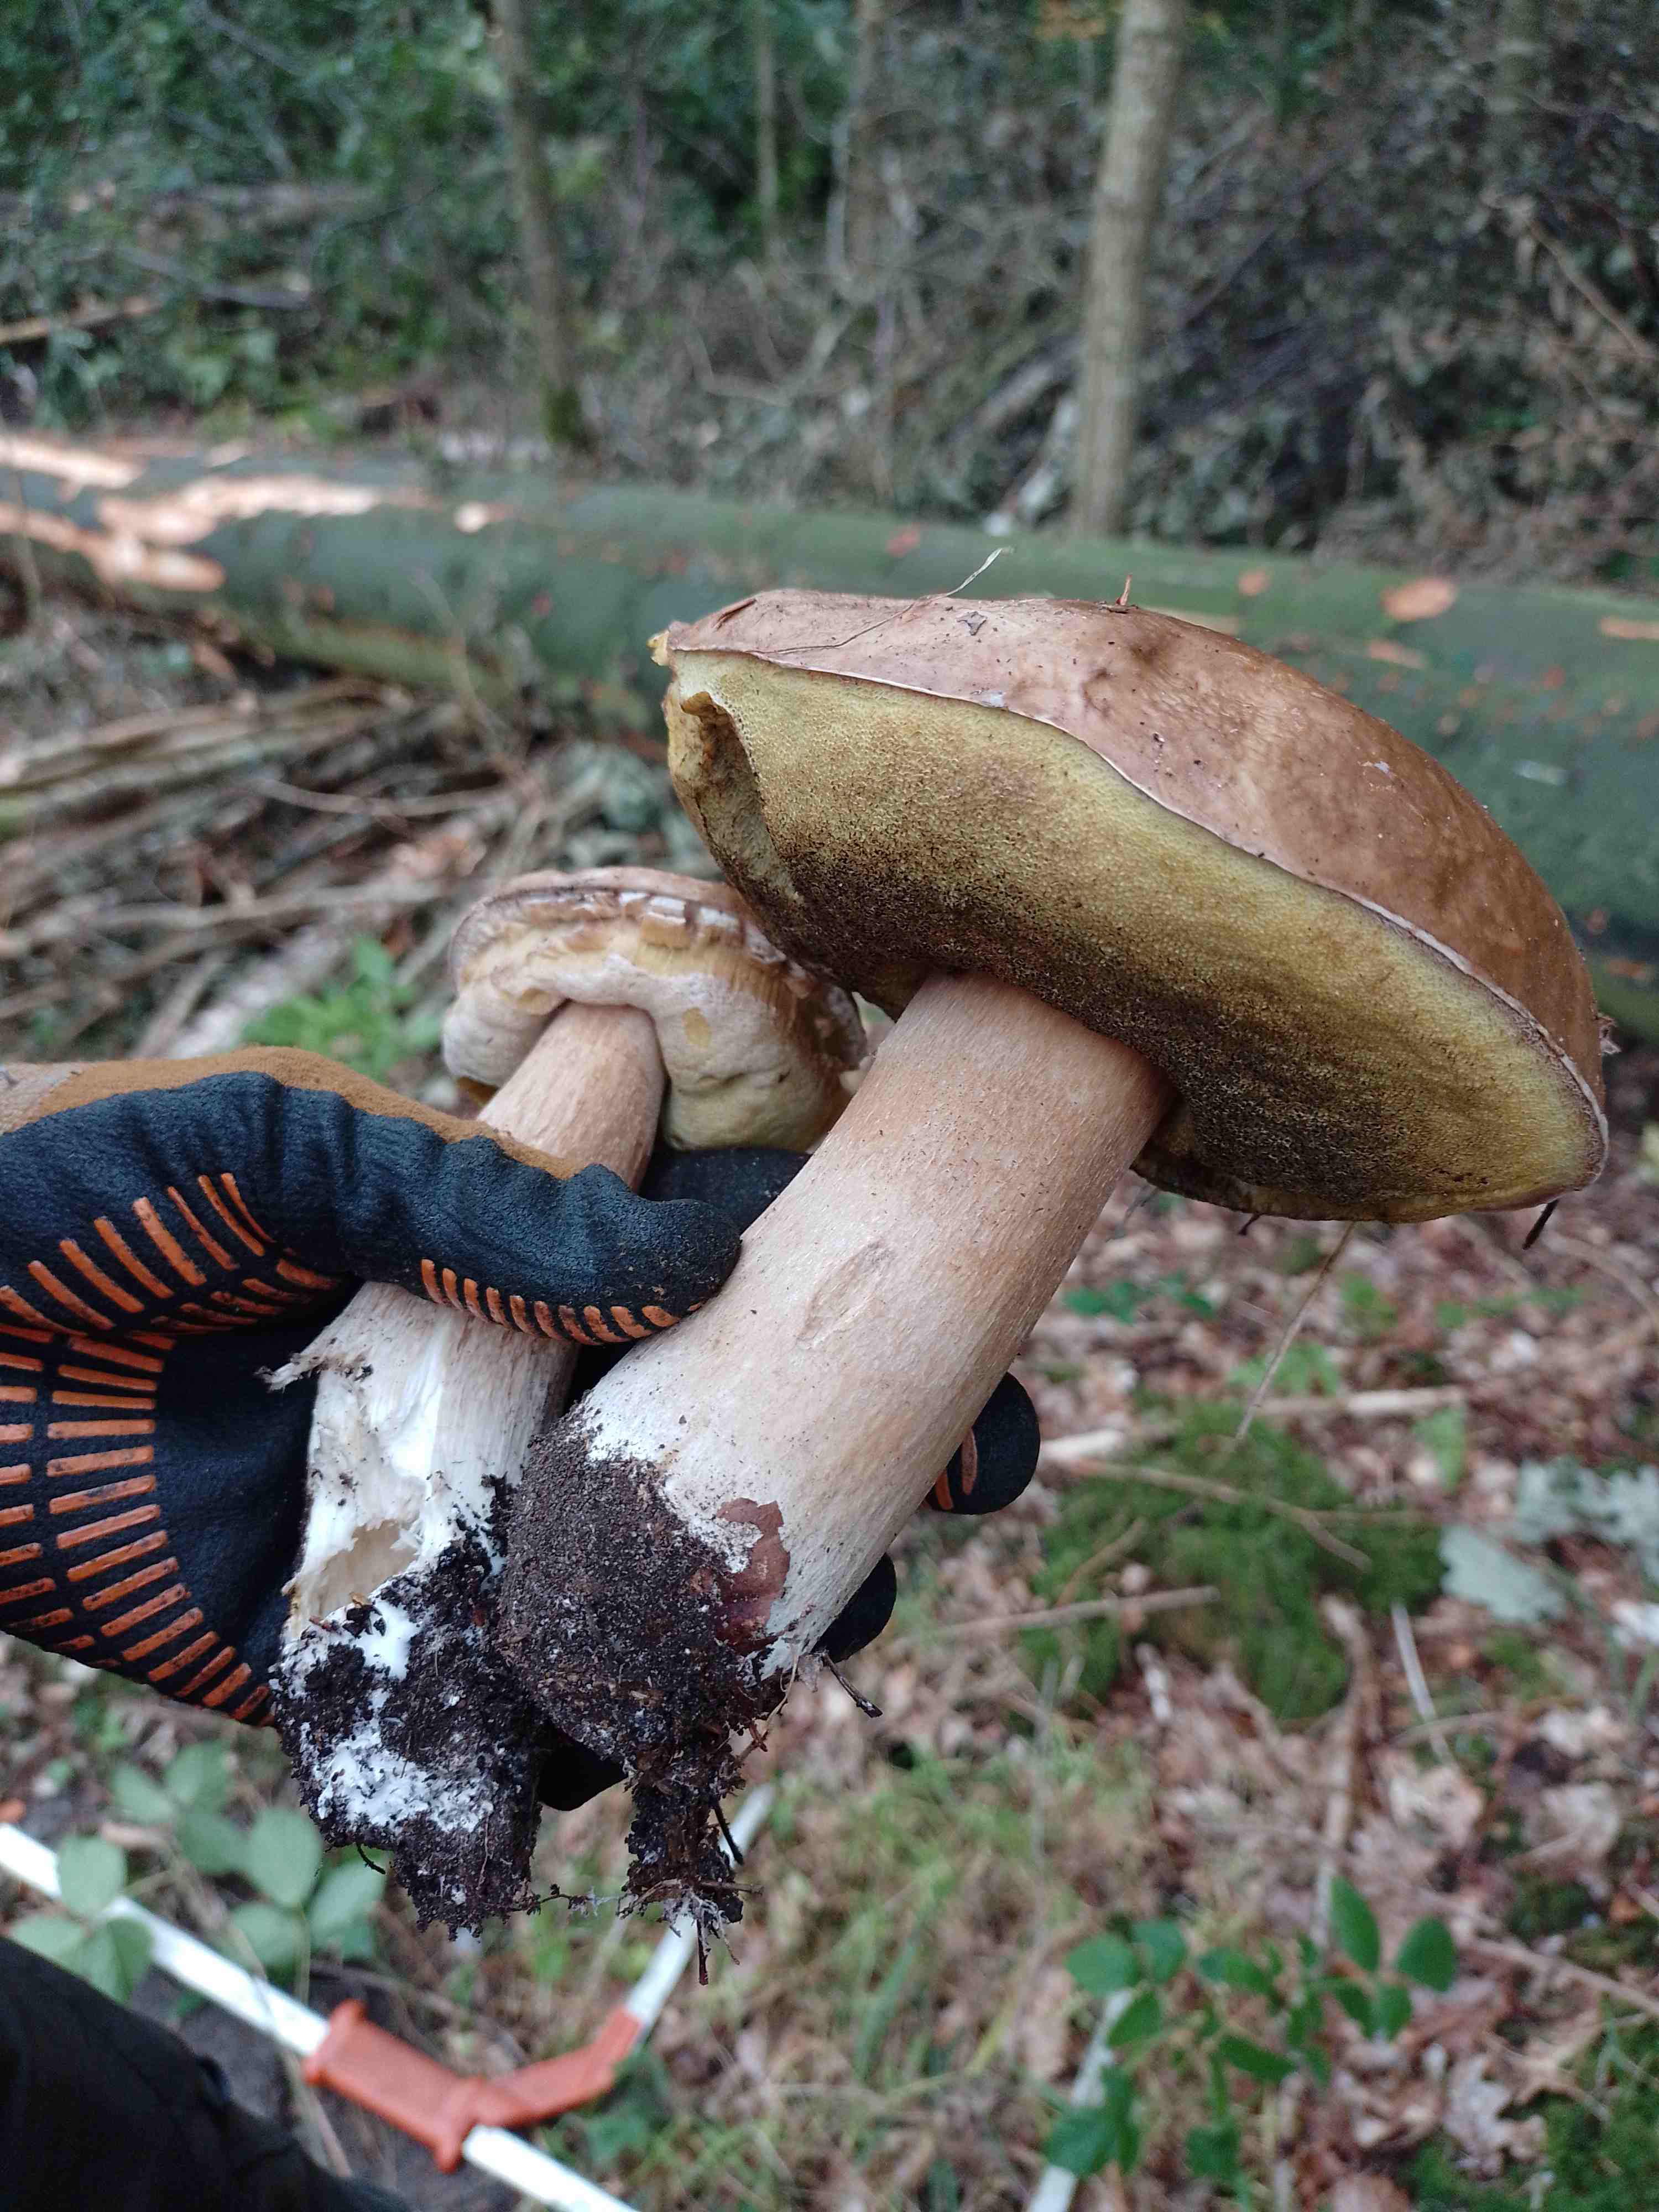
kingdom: Fungi
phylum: Basidiomycota
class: Agaricomycetes
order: Boletales
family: Boletaceae
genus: Boletus
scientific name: Boletus edulis
